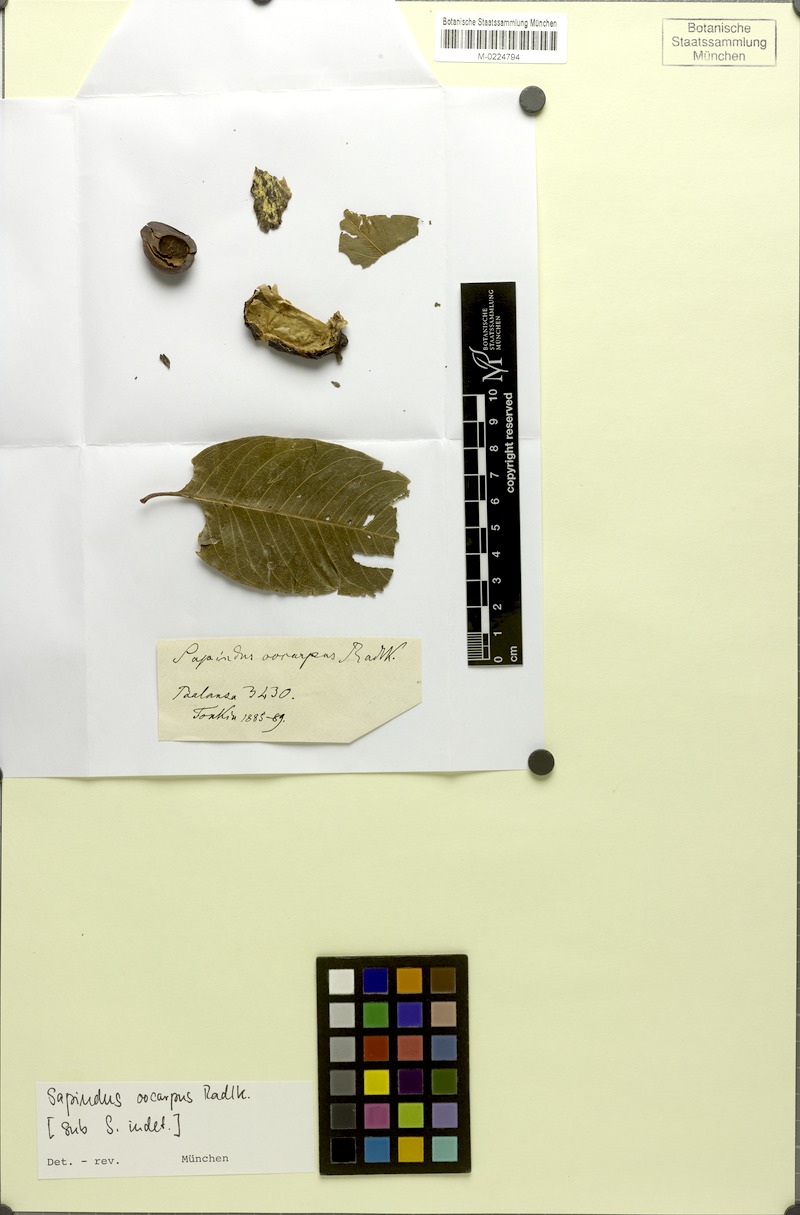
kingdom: Plantae
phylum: Tracheophyta
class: Magnoliopsida
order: Sapindales
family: Sapindaceae
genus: Sapindus
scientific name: Sapindus mukorossi
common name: Chinese soapberry
